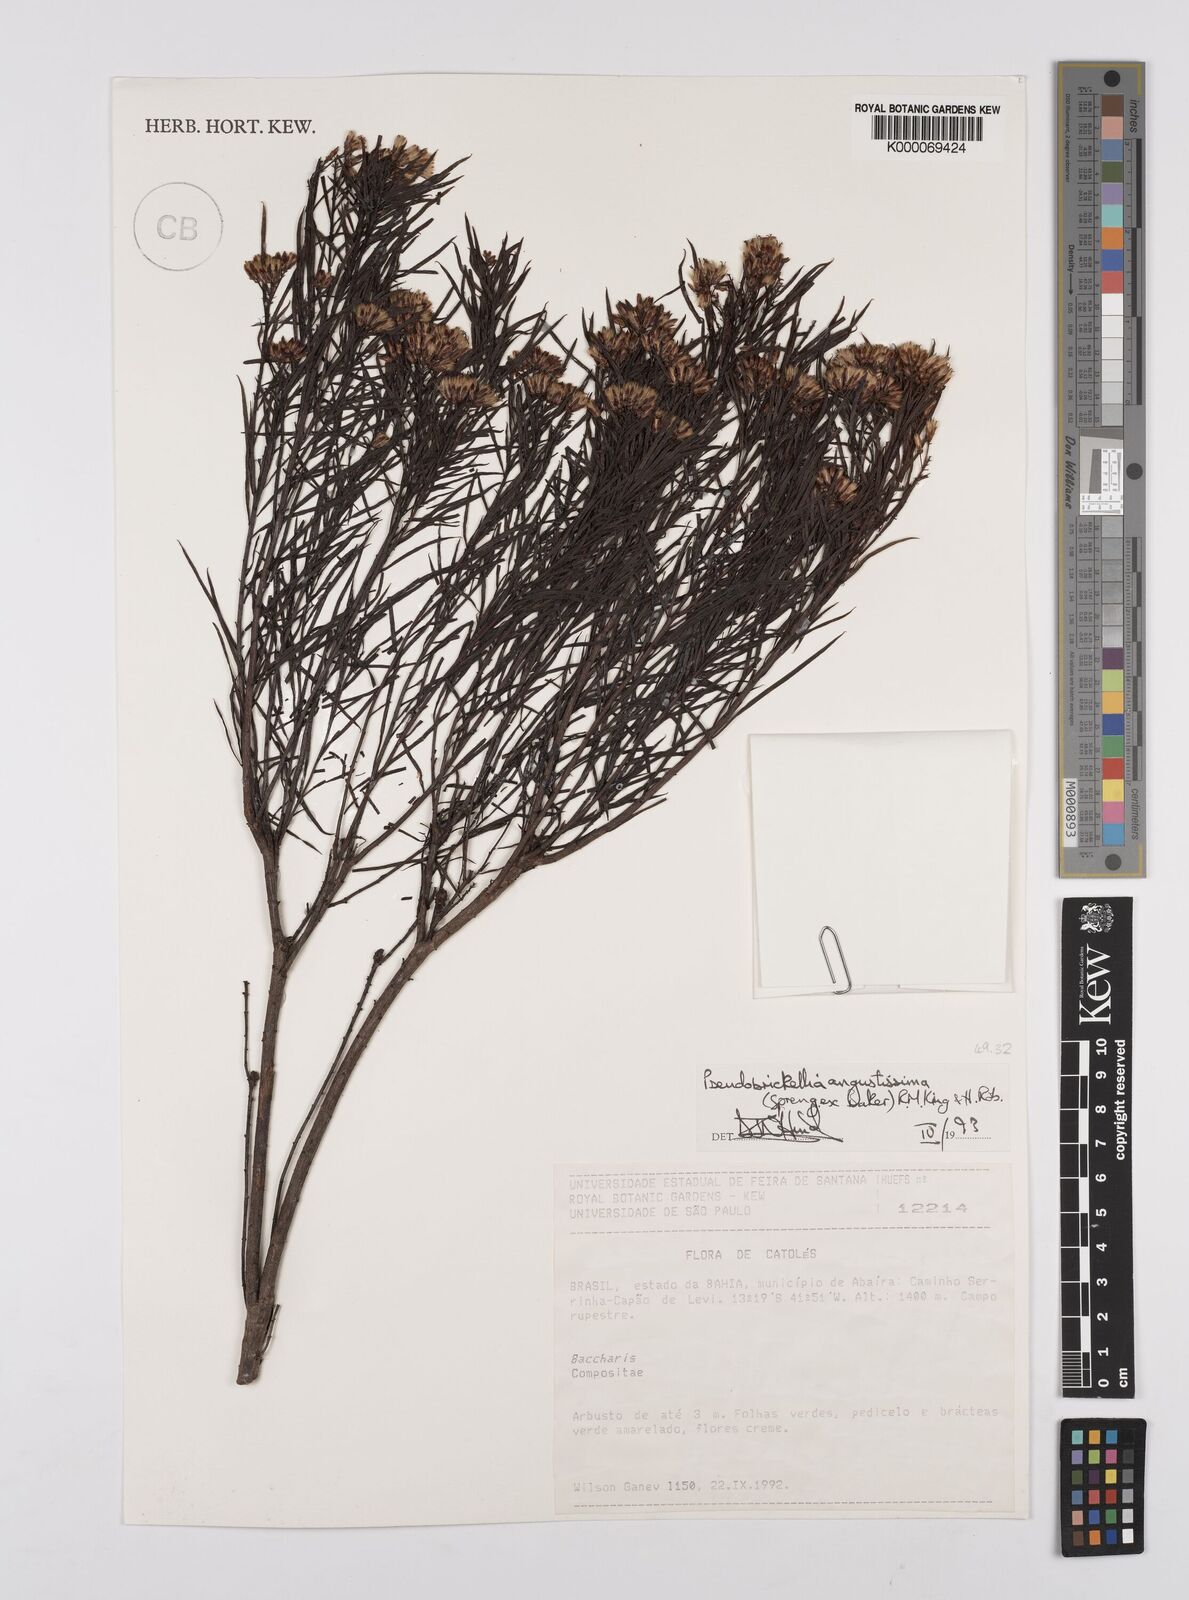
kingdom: Plantae
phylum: Tracheophyta
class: Magnoliopsida
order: Asterales
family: Asteraceae
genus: Pseudobrickellia
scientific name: Pseudobrickellia angustissima
